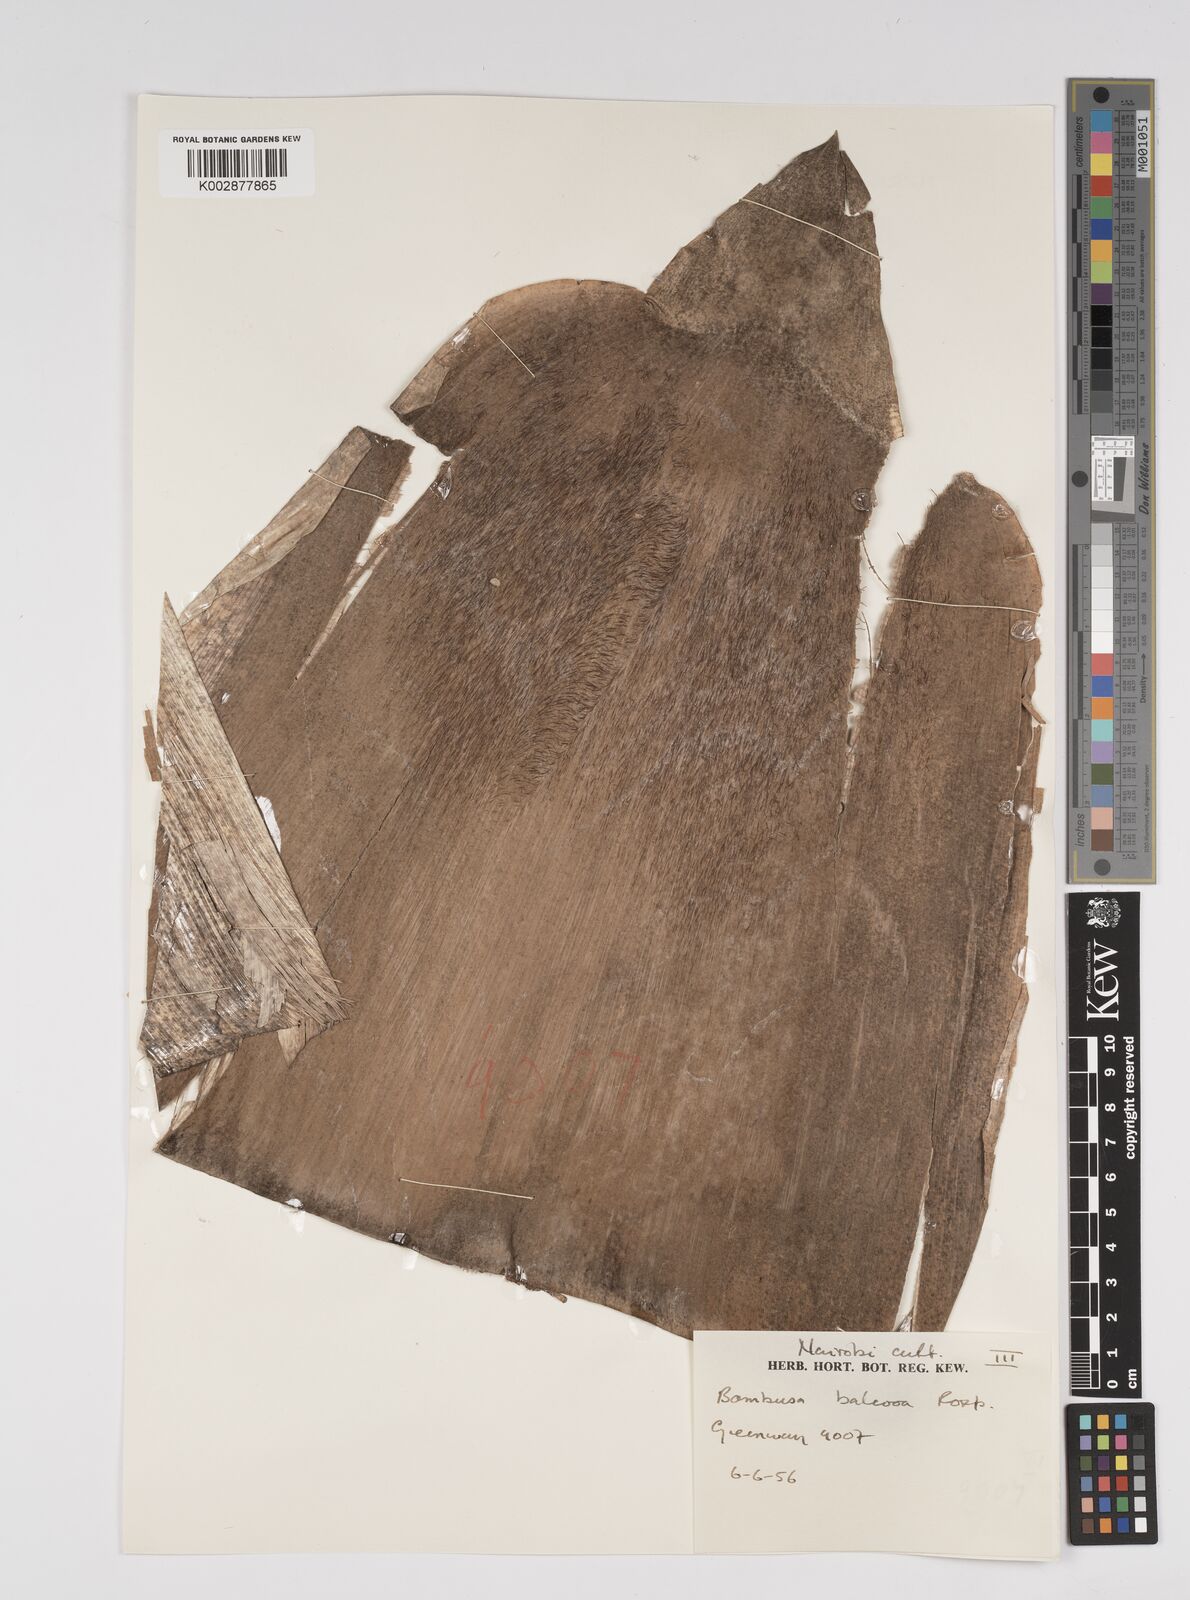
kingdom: Plantae
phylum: Tracheophyta
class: Liliopsida
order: Poales
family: Poaceae
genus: Bambusa
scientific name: Bambusa balcooa
